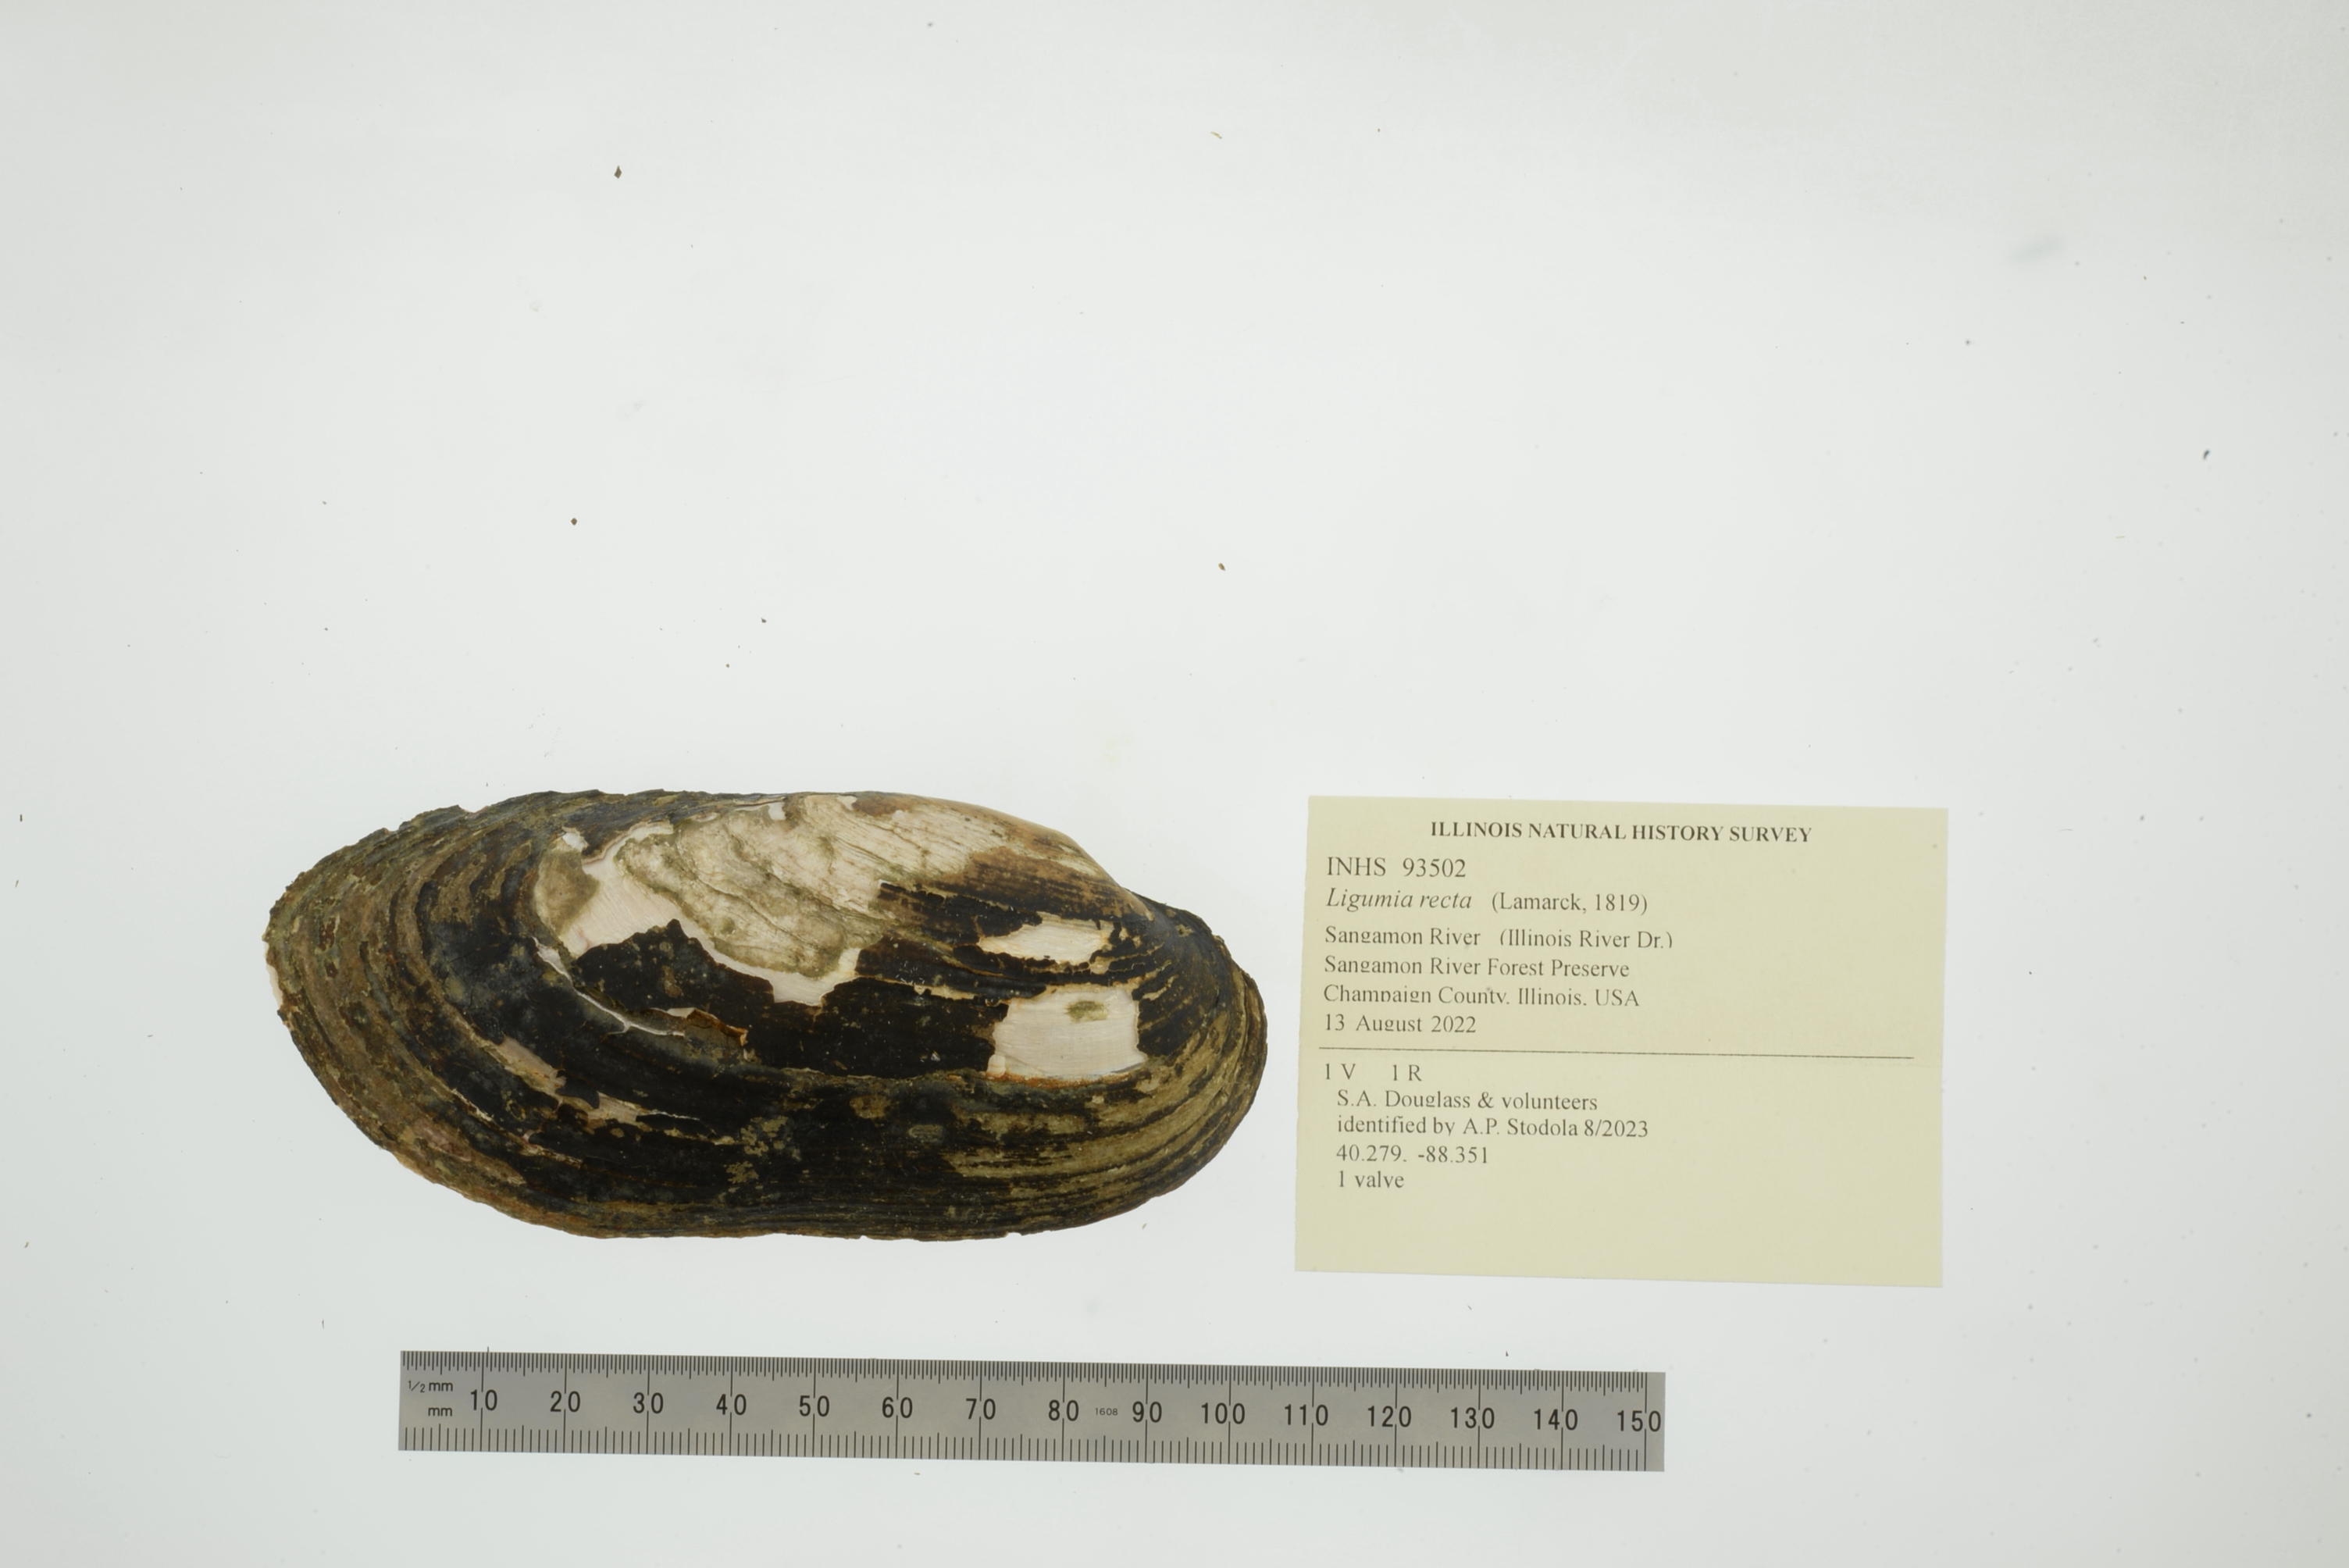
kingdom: Animalia
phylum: Mollusca
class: Bivalvia
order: Unionida
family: Unionidae
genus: Ligumia
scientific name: Ligumia recta
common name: Black sandshell
